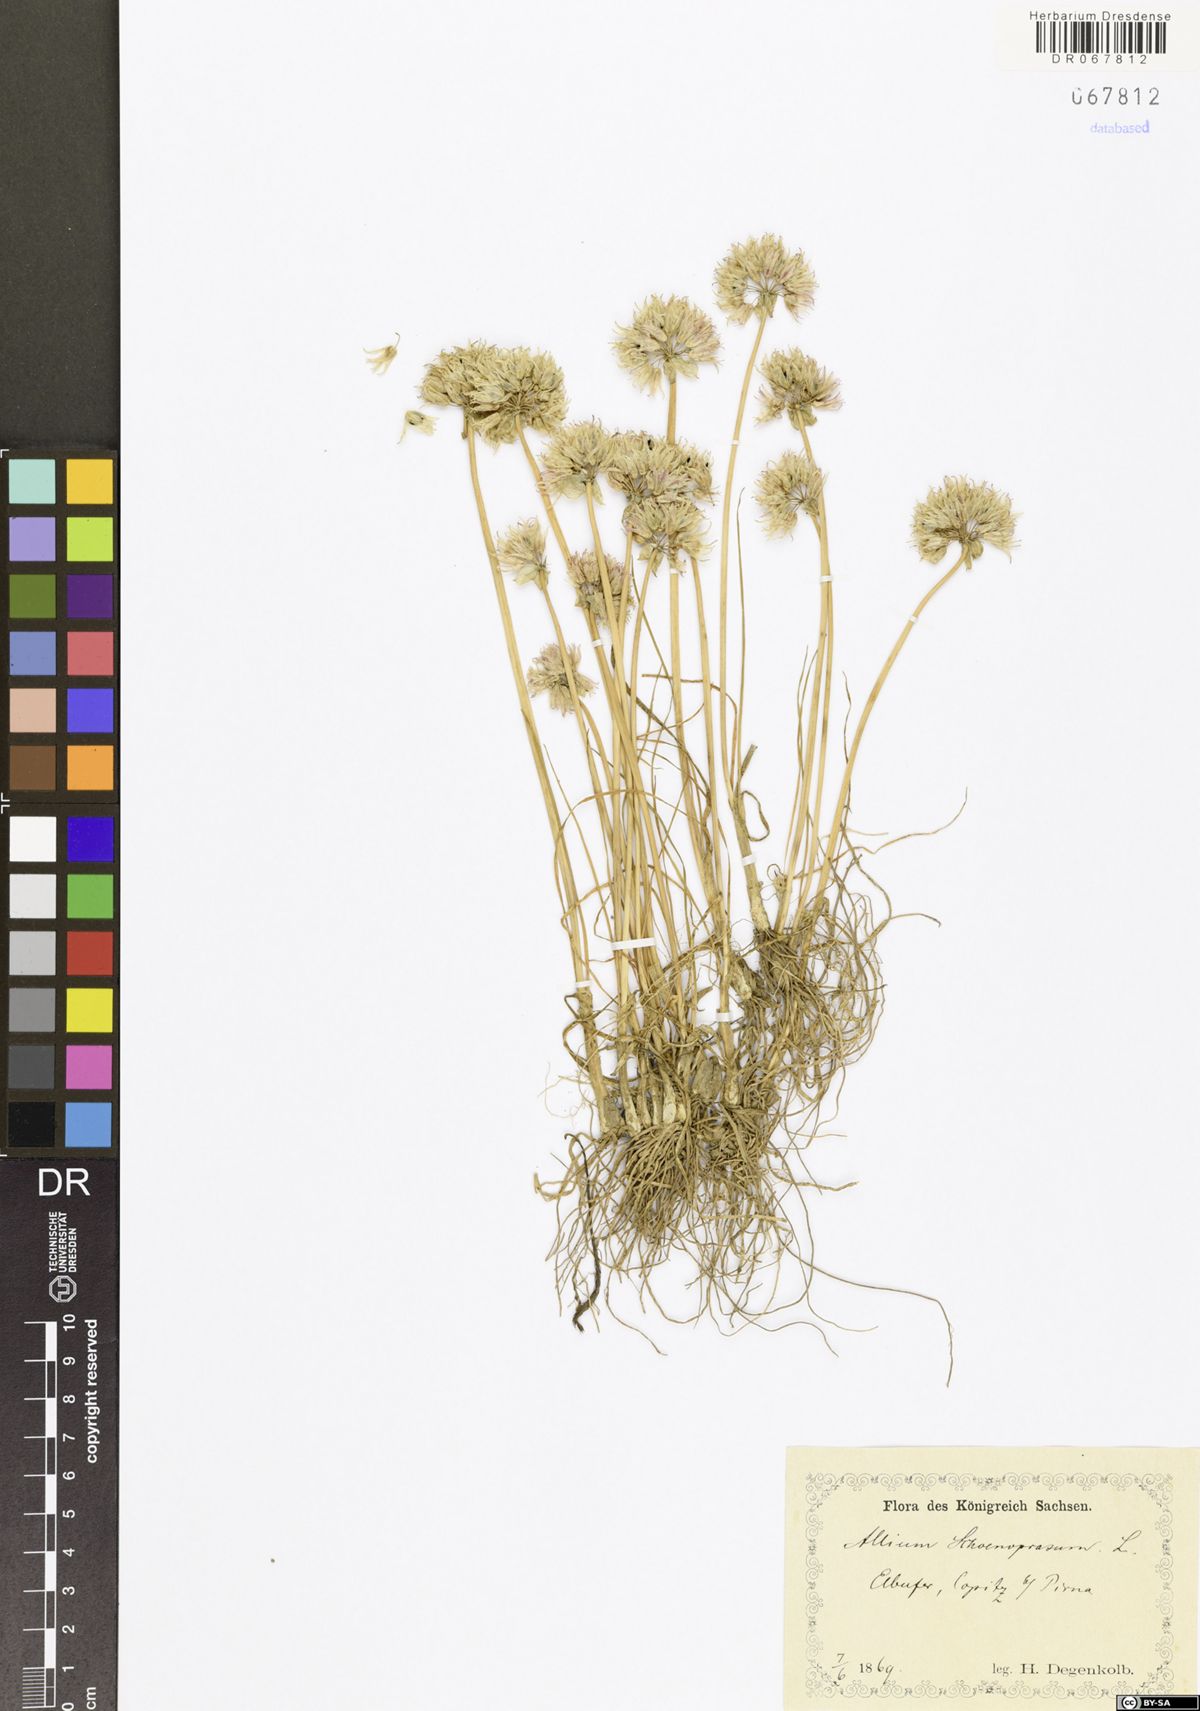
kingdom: Plantae
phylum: Tracheophyta
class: Liliopsida
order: Asparagales
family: Amaryllidaceae
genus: Allium
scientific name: Allium schoenoprasum
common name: Chives
